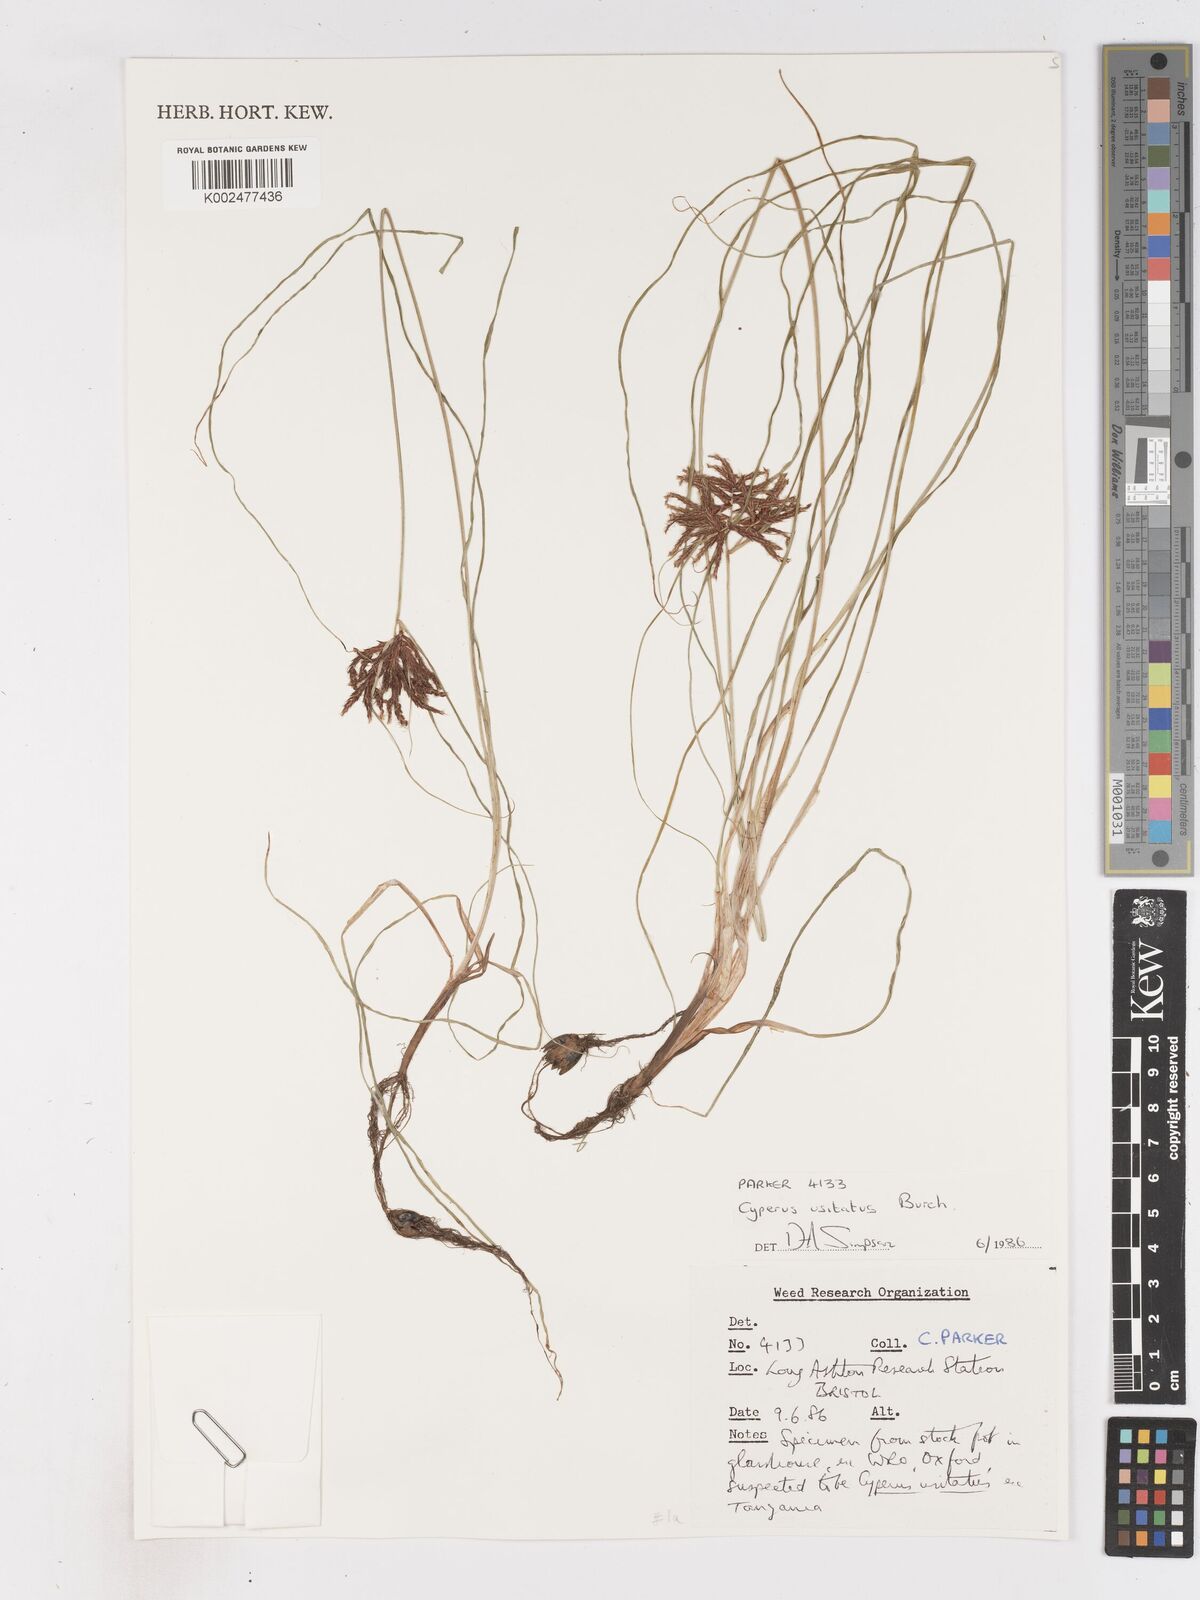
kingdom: Plantae
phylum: Tracheophyta
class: Liliopsida
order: Poales
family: Cyperaceae
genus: Cyperus
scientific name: Cyperus
